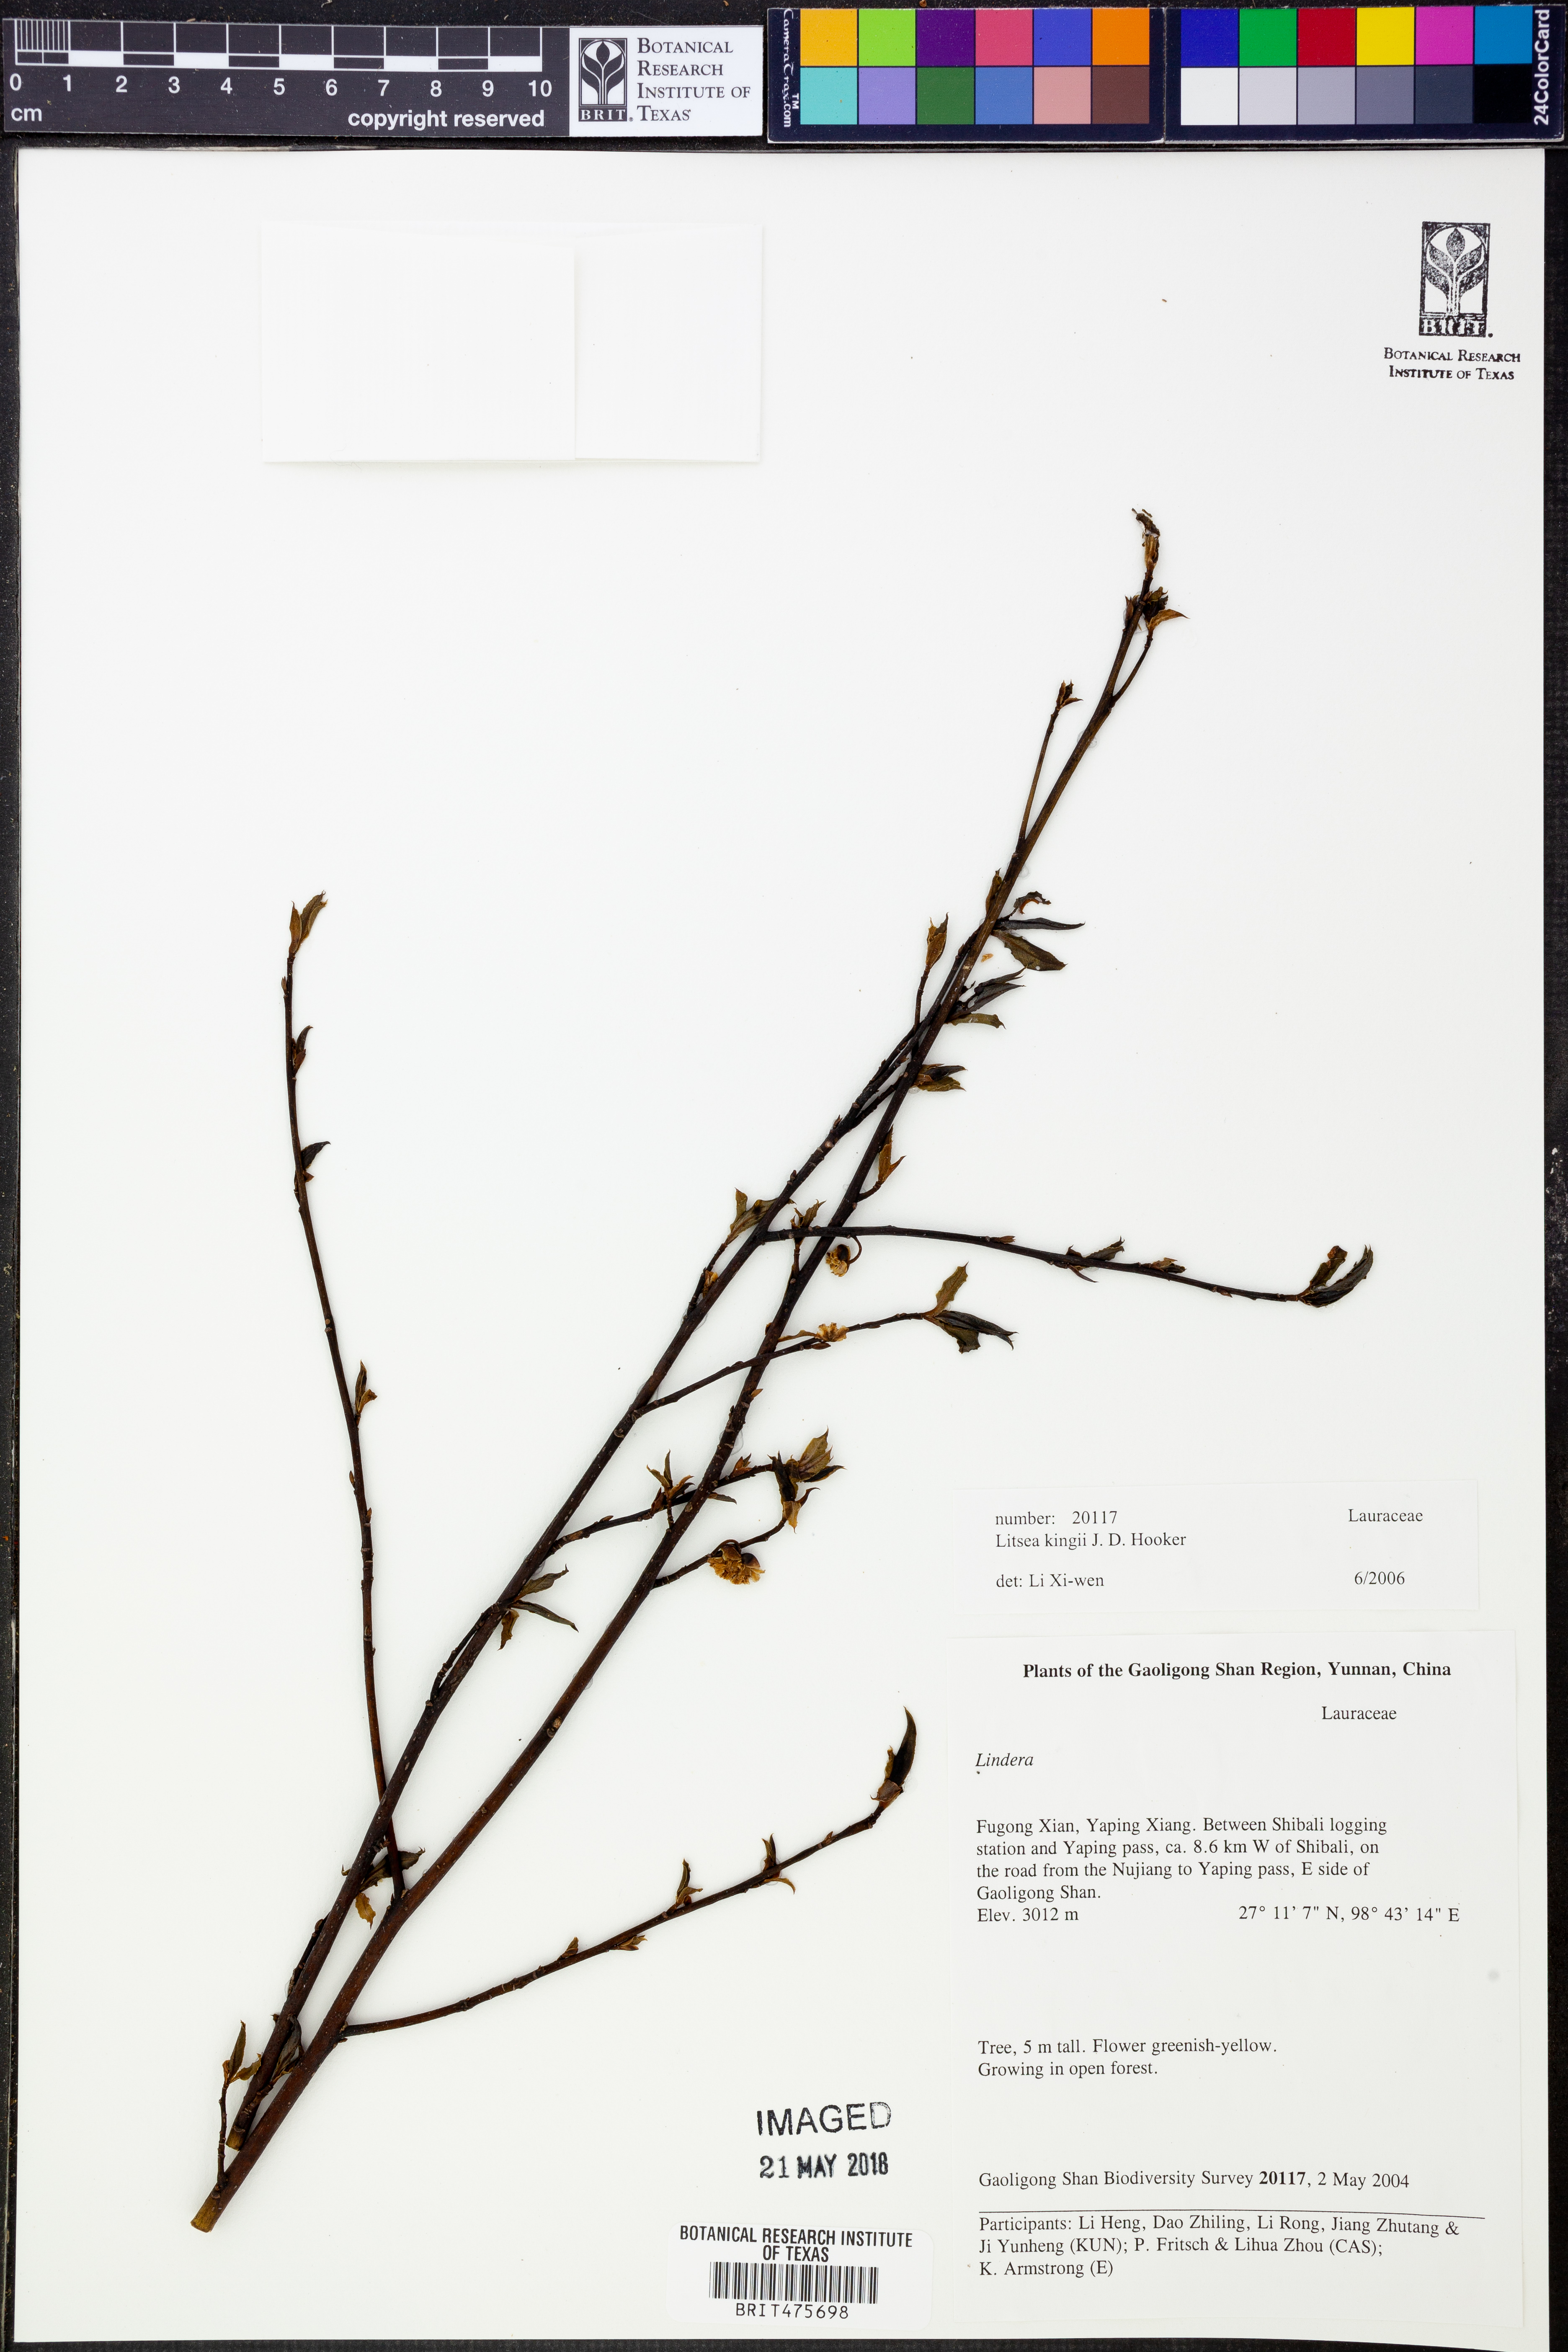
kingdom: Plantae
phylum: Tracheophyta
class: Magnoliopsida
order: Laurales
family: Lauraceae
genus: Litsea
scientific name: Litsea kingii
